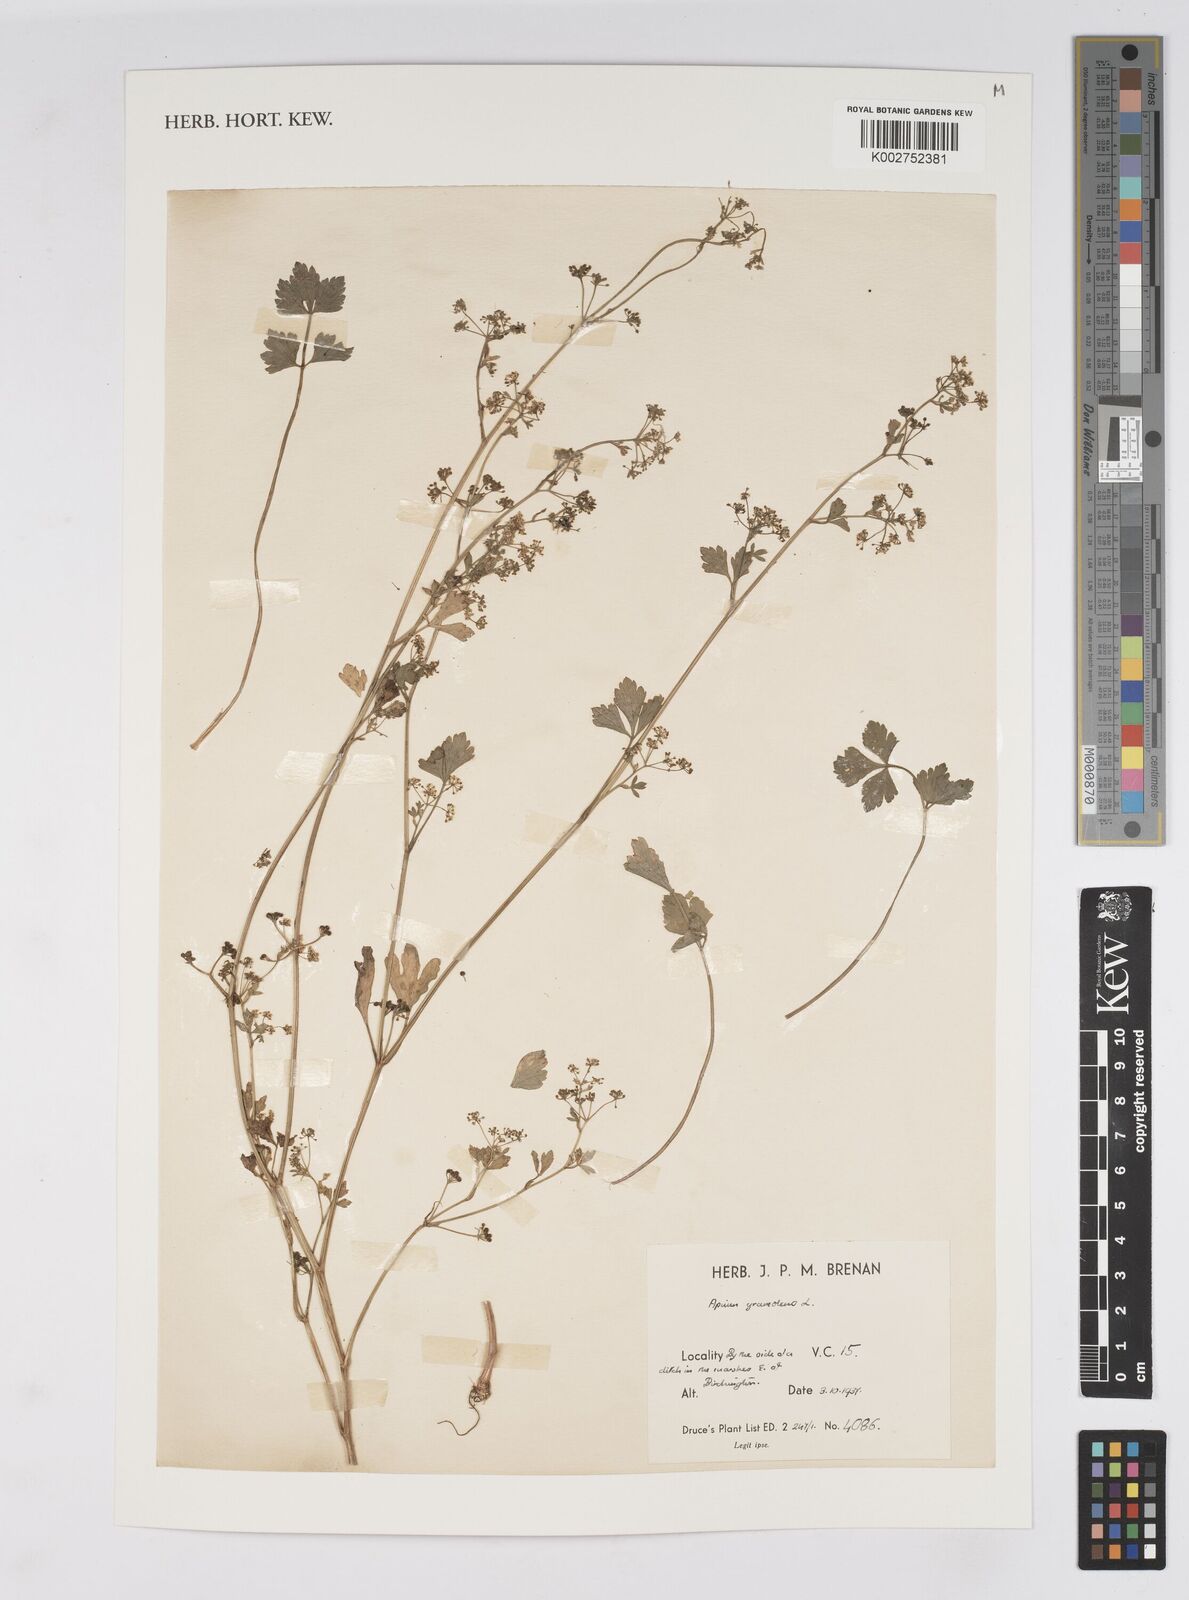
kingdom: Plantae
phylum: Tracheophyta
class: Magnoliopsida
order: Apiales
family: Apiaceae
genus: Apium
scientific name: Apium graveolens
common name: Wild celery
